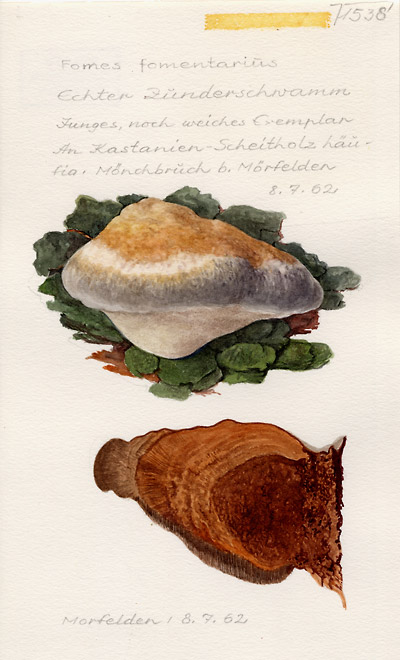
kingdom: Fungi
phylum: Basidiomycota
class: Agaricomycetes
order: Polyporales
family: Polyporaceae
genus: Fomes
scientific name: Fomes fomentarius
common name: Hoof fungus
